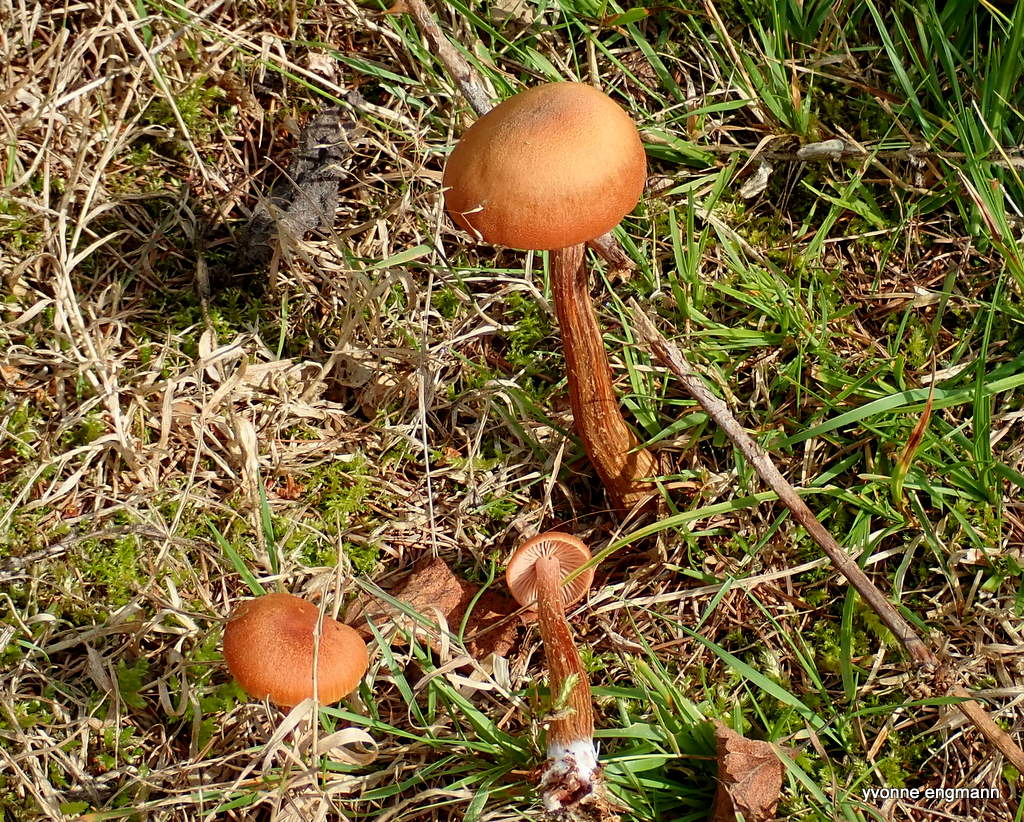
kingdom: Fungi
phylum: Basidiomycota
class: Agaricomycetes
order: Agaricales
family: Hydnangiaceae
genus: Laccaria
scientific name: Laccaria laccata
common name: rød ametysthat
